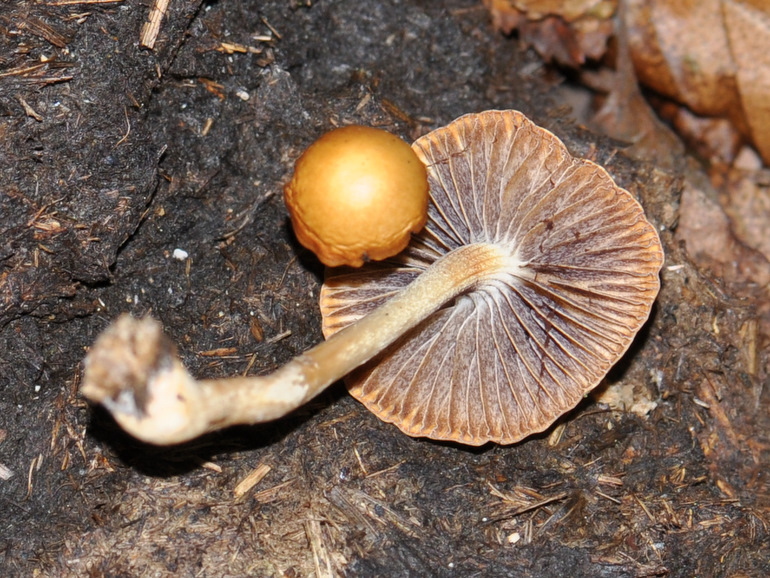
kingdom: Fungi
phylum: Basidiomycota
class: Agaricomycetes
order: Agaricales
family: Strophariaceae
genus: Protostropharia
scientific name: Protostropharia semiglobata
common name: halvkugleformet bredblad
